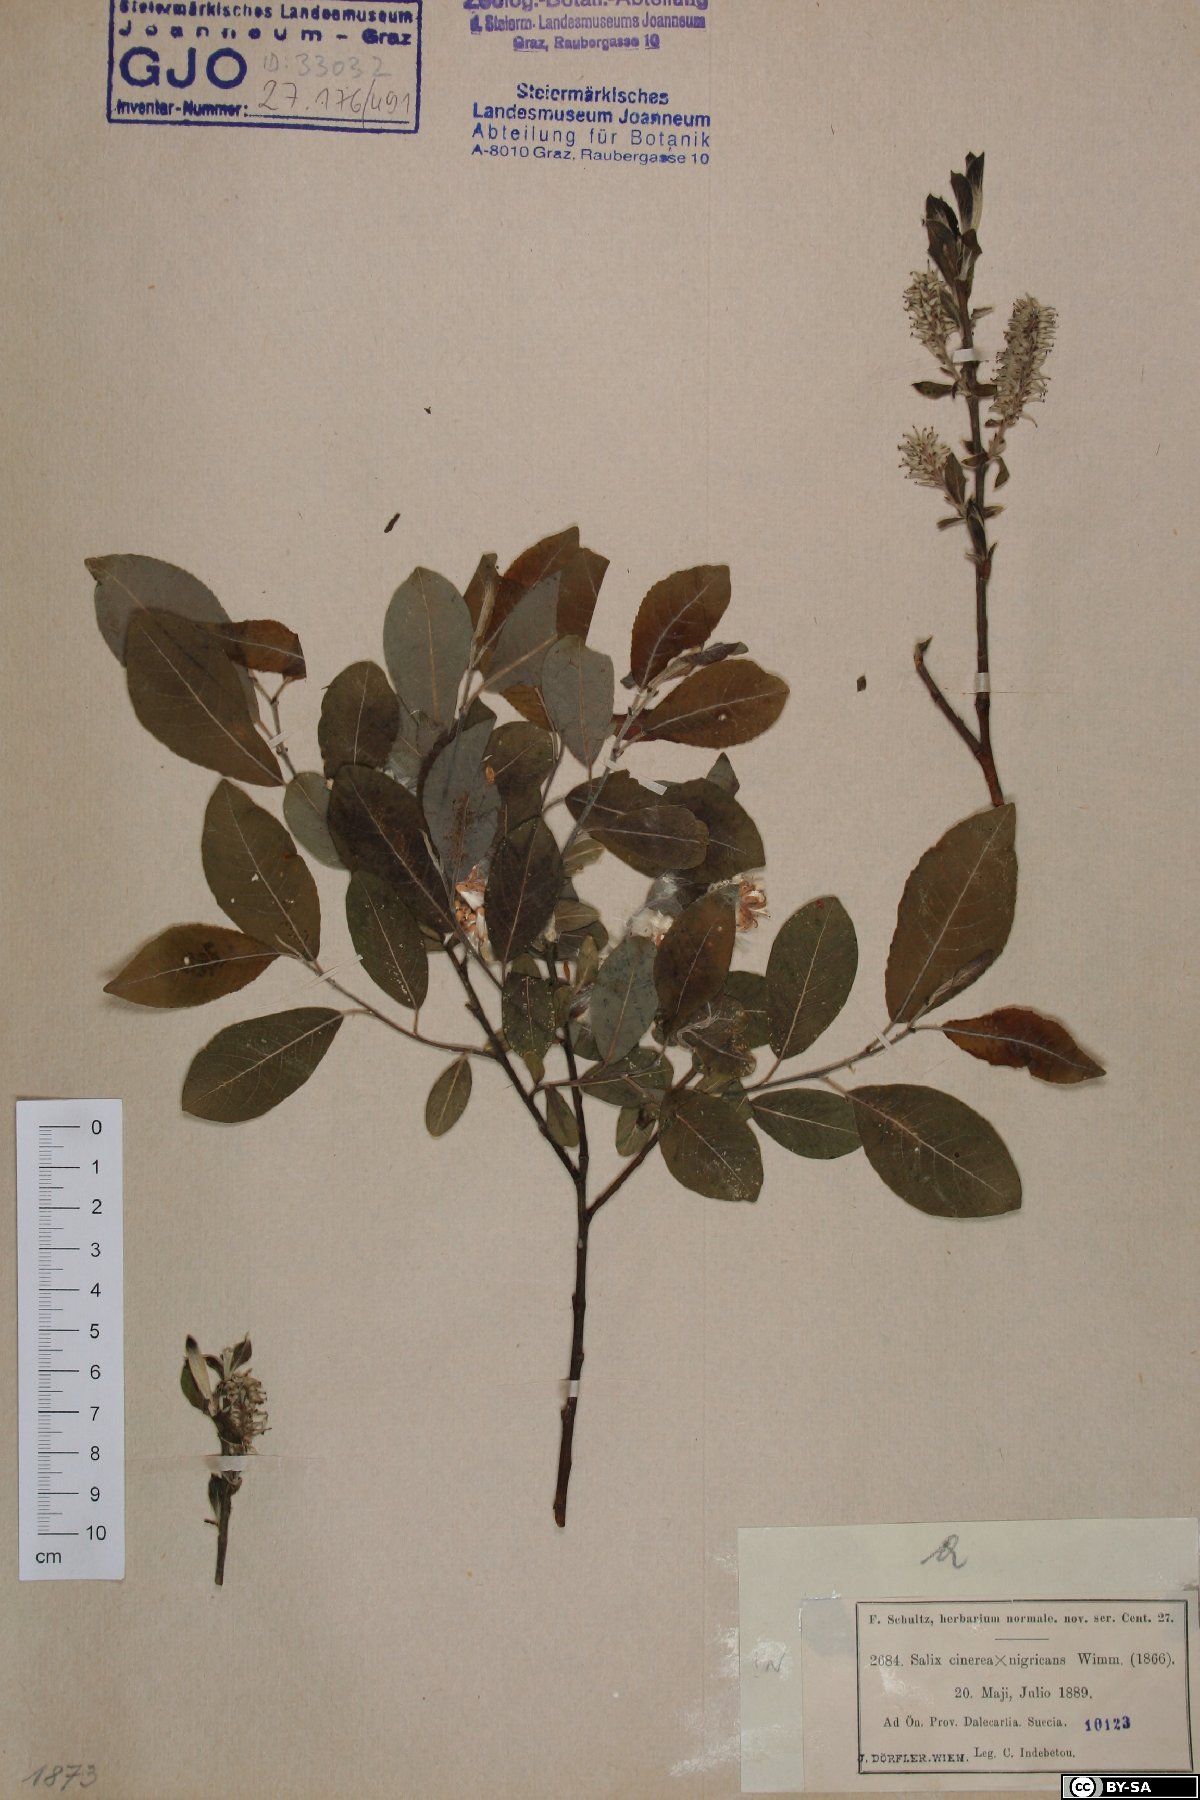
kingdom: Plantae
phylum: Tracheophyta
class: Magnoliopsida
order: Malpighiales
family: Salicaceae
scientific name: Salicaceae
